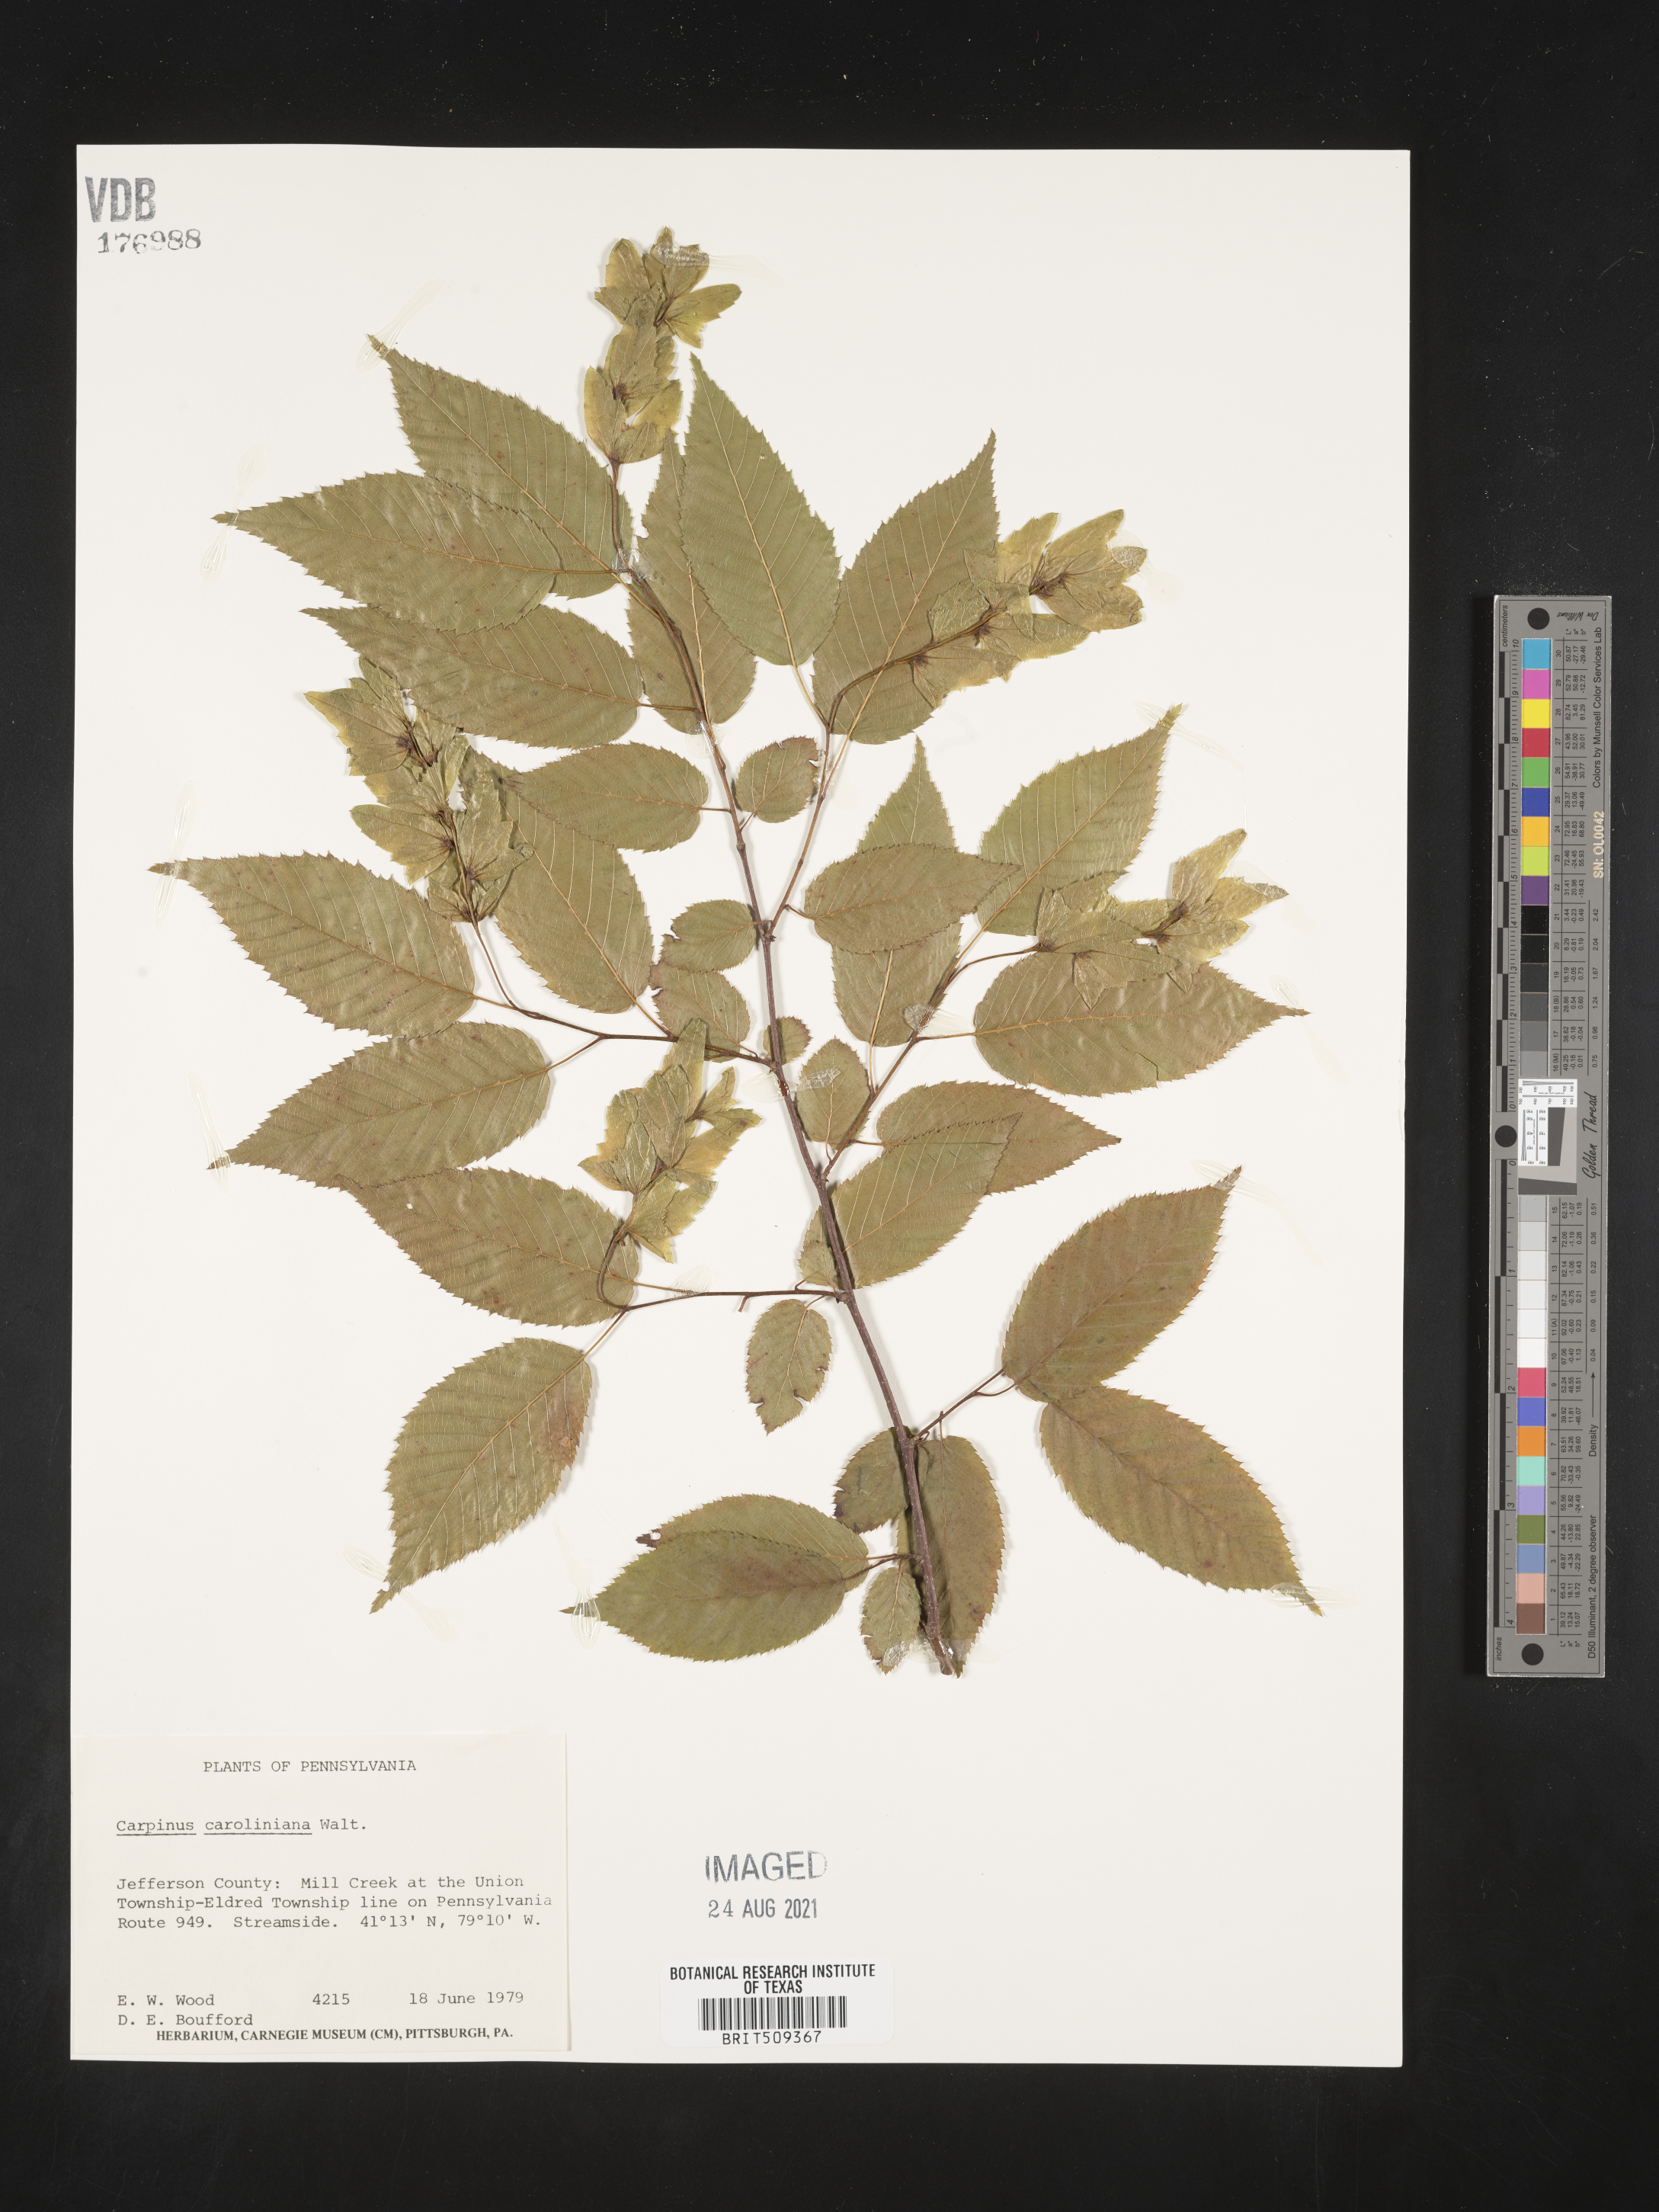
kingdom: Plantae
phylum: Tracheophyta
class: Magnoliopsida
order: Fagales
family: Betulaceae
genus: Carpinus
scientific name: Carpinus caroliniana
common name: American hornbeam
